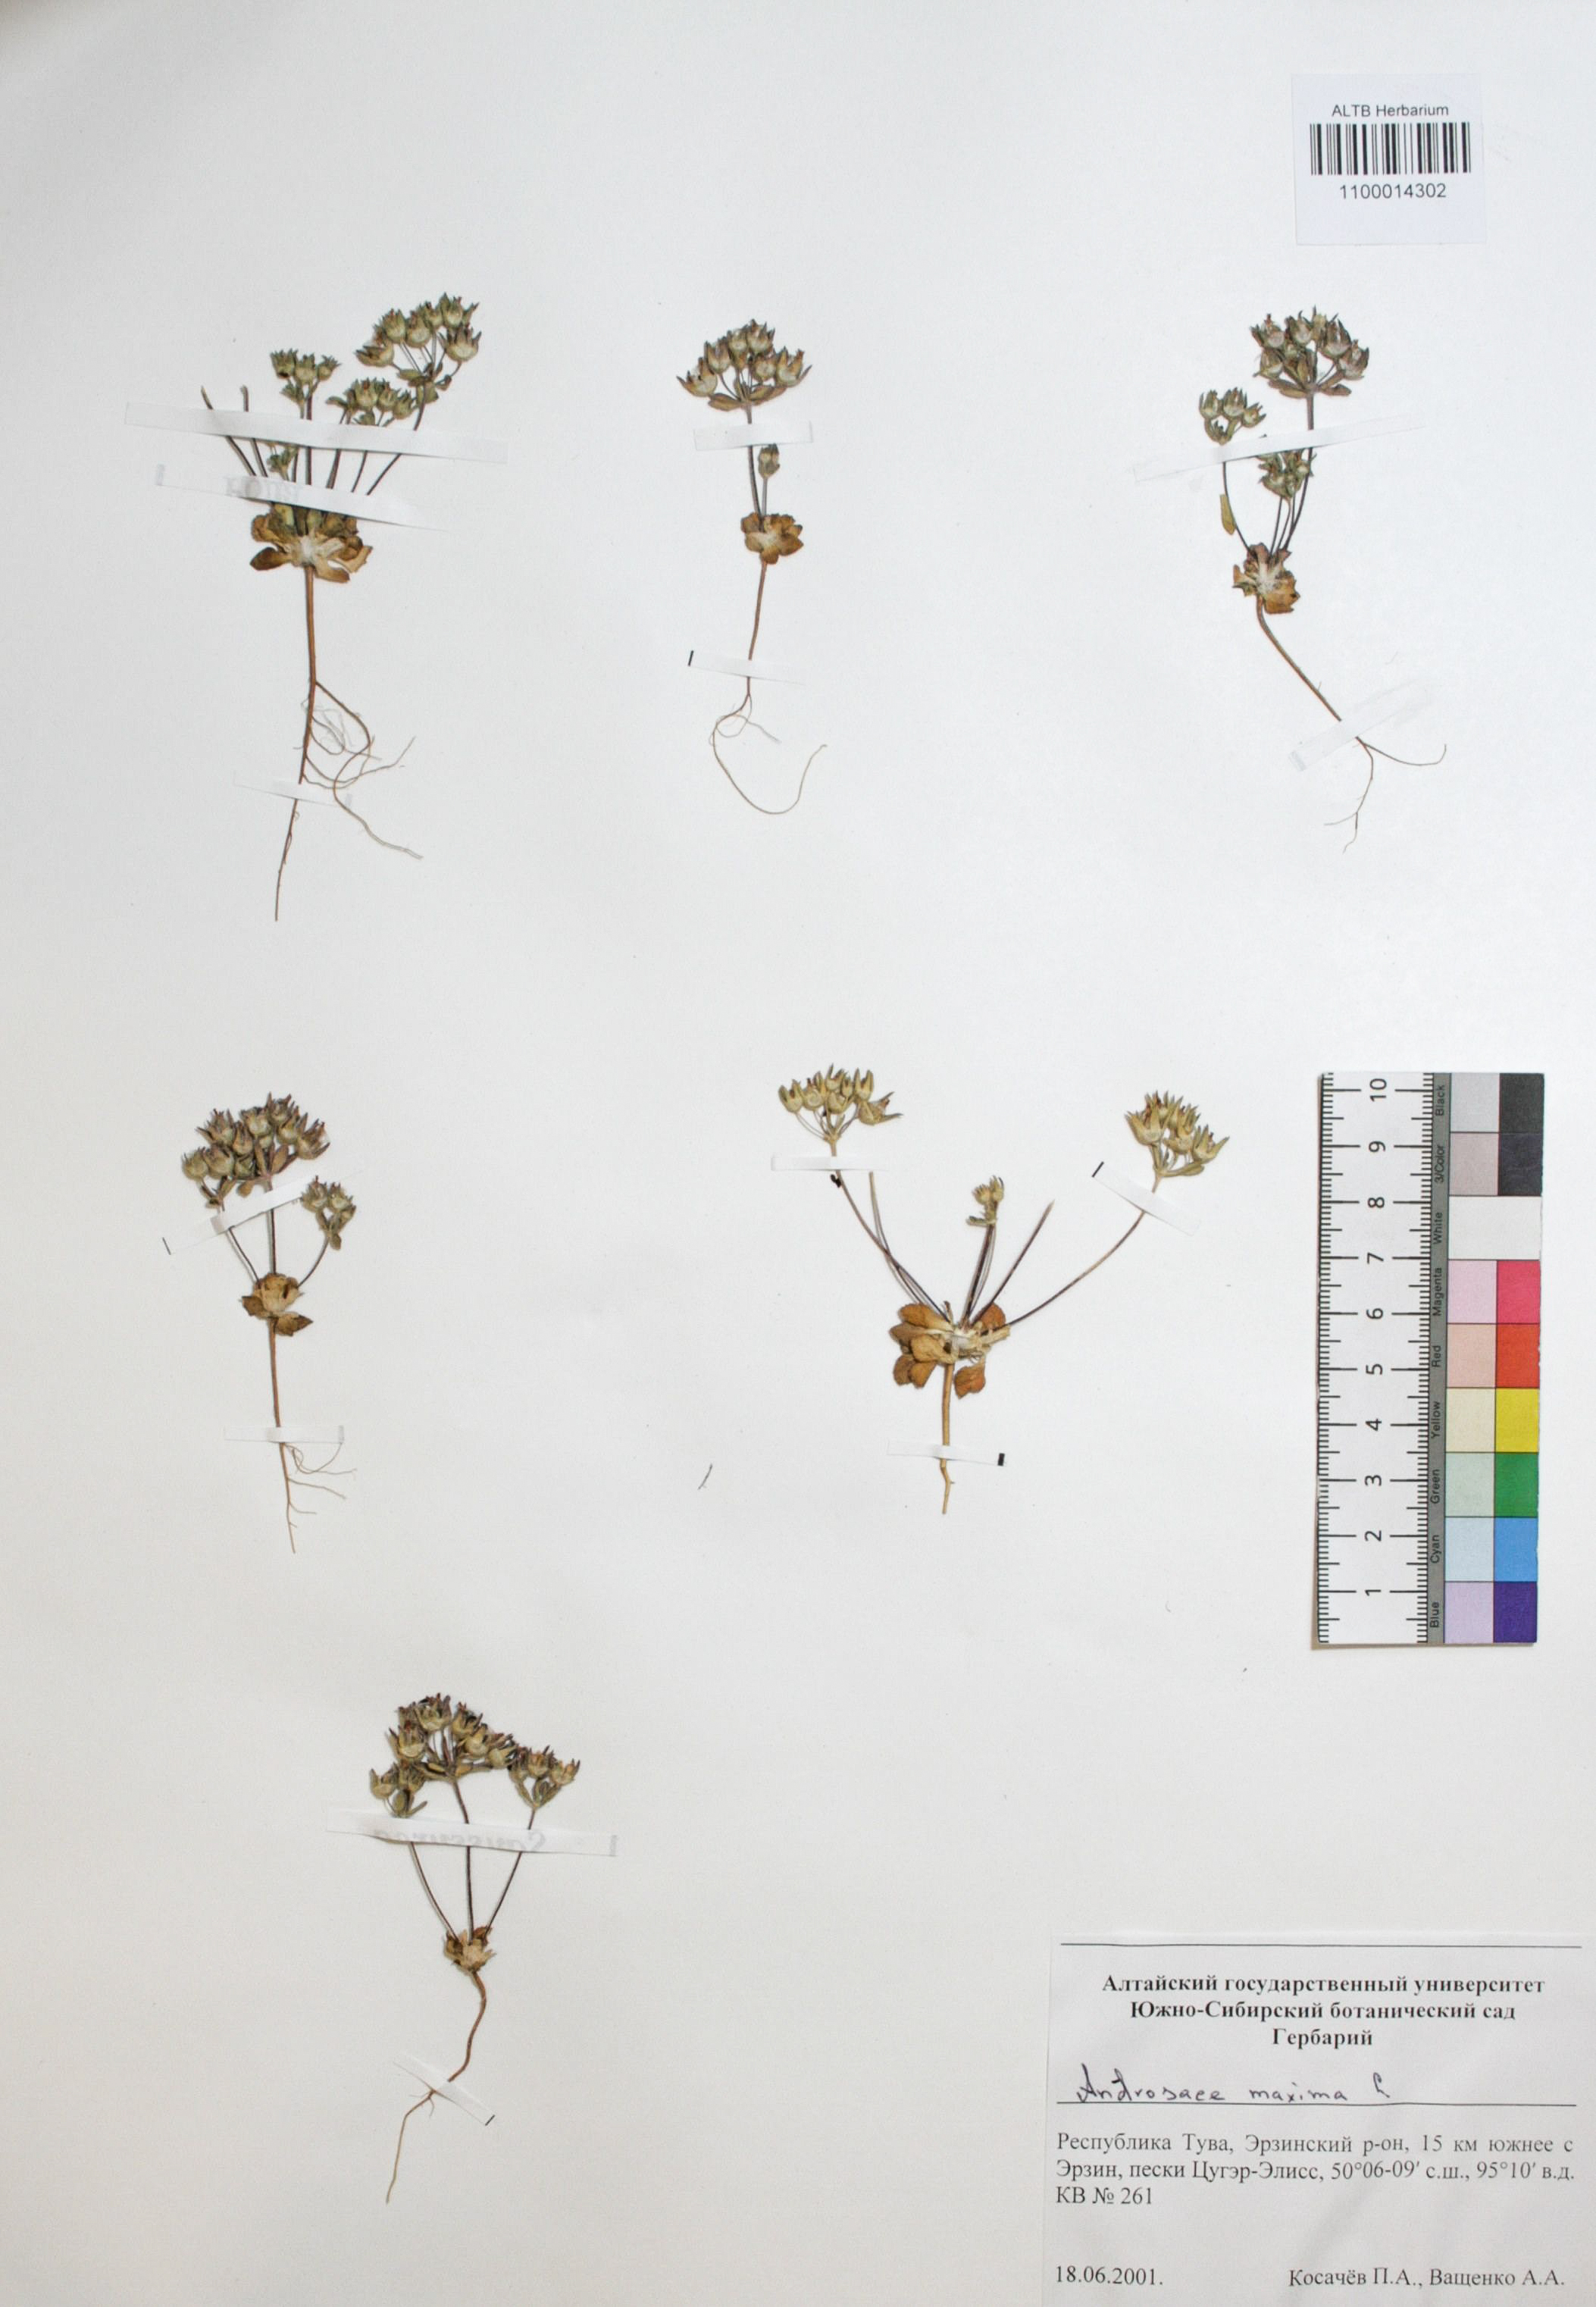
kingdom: Plantae
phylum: Tracheophyta
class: Magnoliopsida
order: Ericales
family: Primulaceae
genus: Androsace
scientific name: Androsace maxima
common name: Annual androsace
